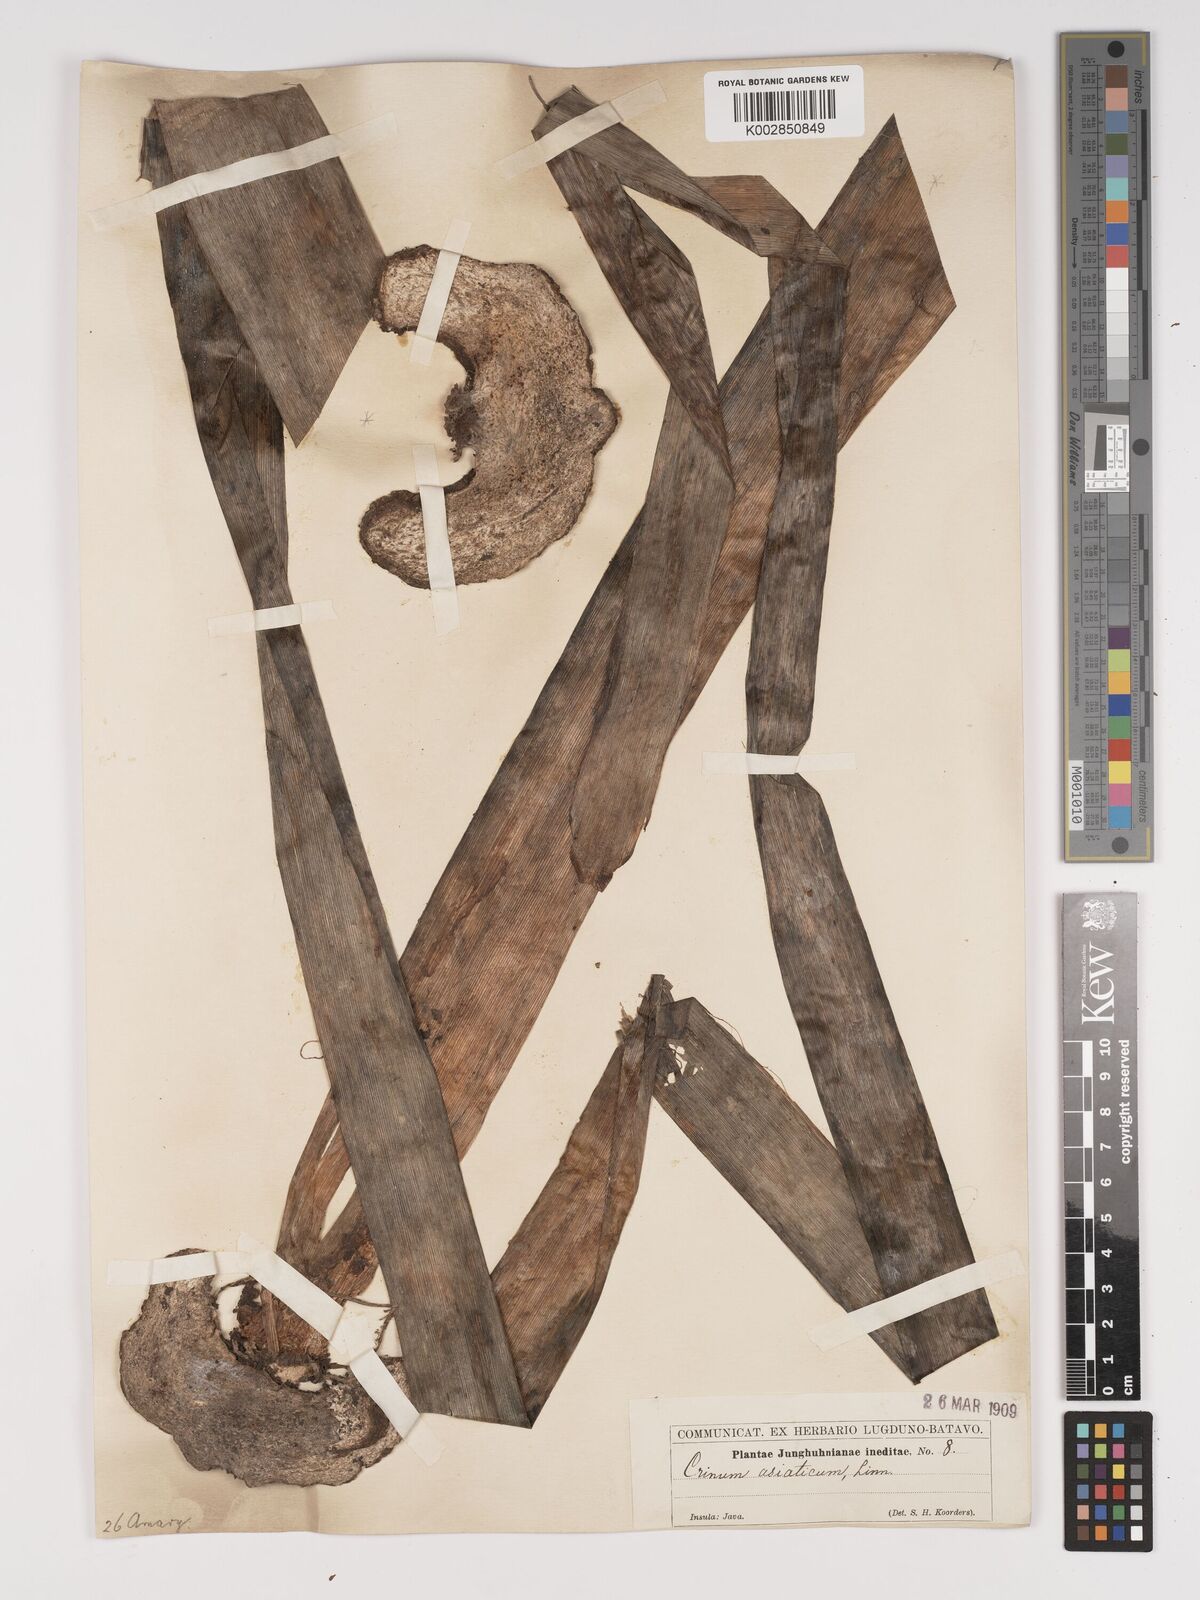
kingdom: Plantae
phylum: Tracheophyta
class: Liliopsida
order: Asparagales
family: Amaryllidaceae
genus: Crinum
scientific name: Crinum asiaticum
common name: Poisonbulb
